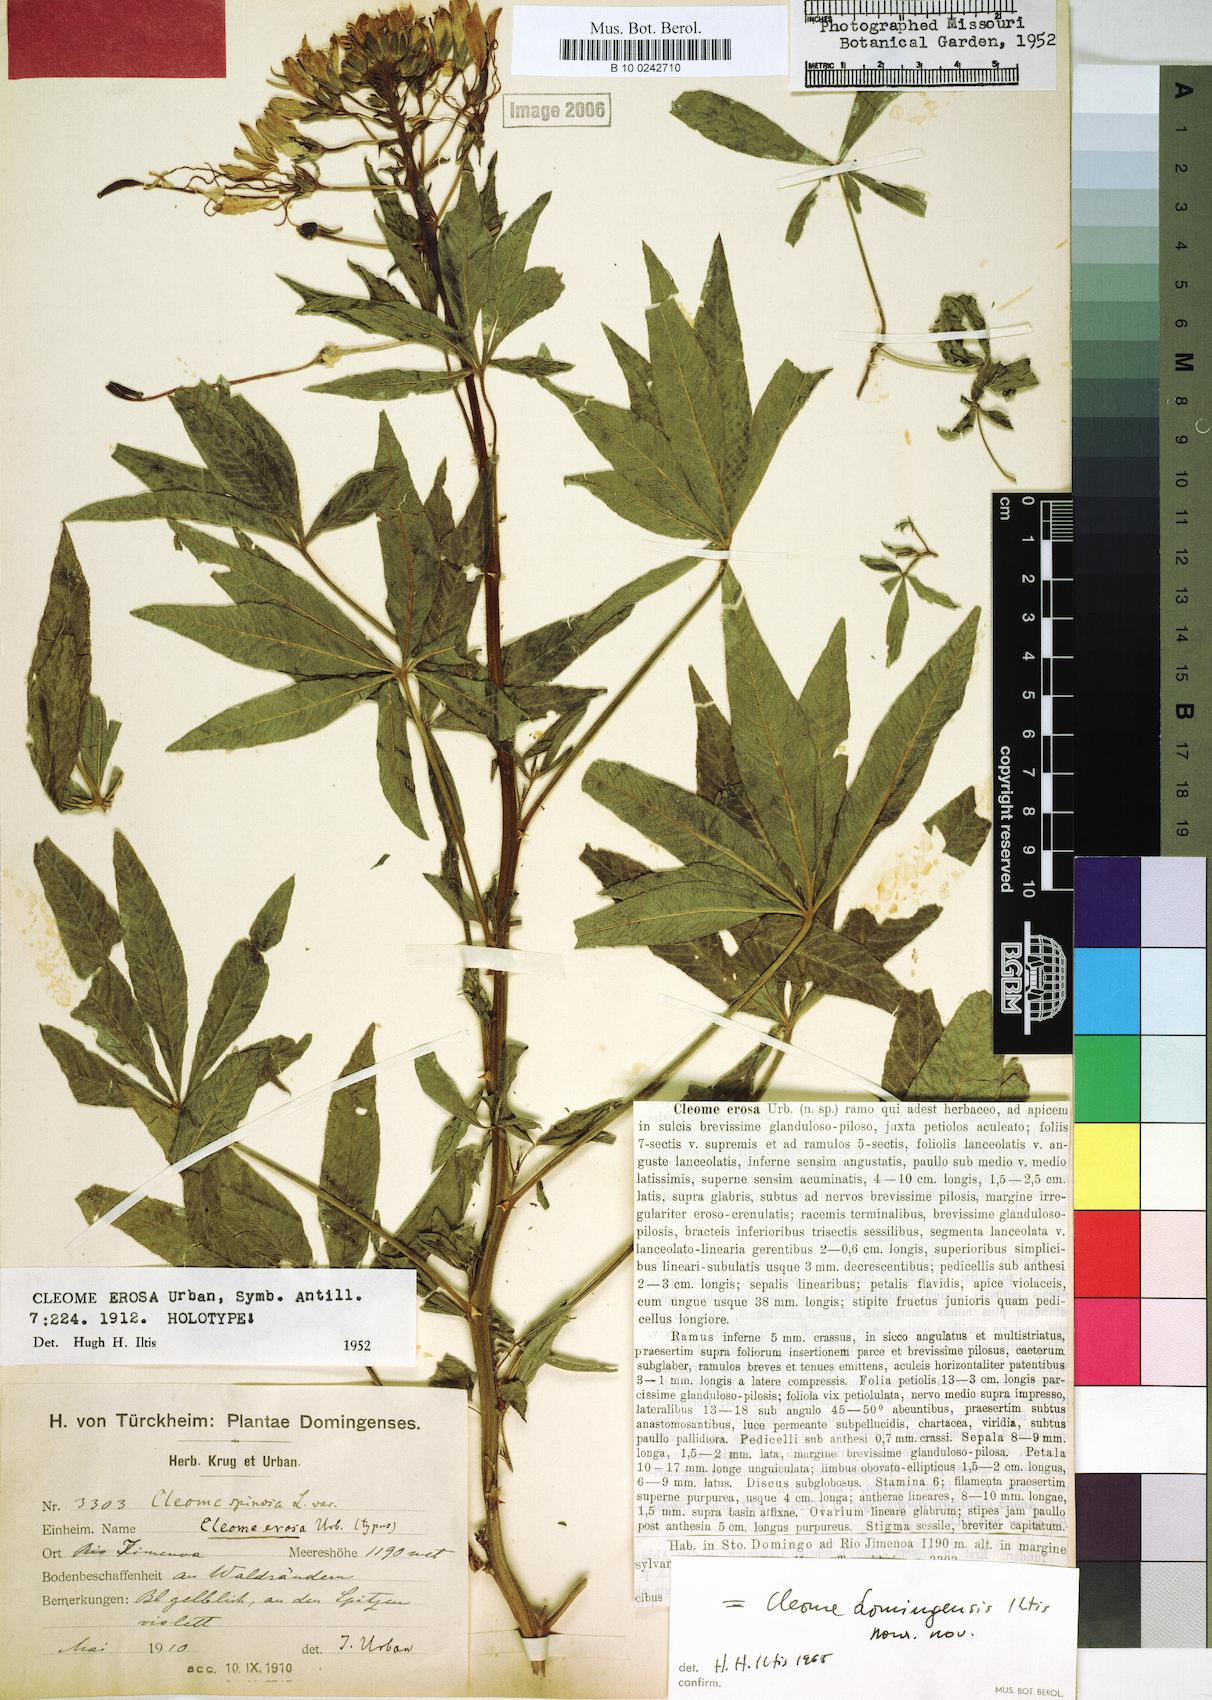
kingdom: Plantae
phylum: Tracheophyta
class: Magnoliopsida
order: Brassicales
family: Cleomaceae
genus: Tarenaya
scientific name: Tarenaya domingensis
